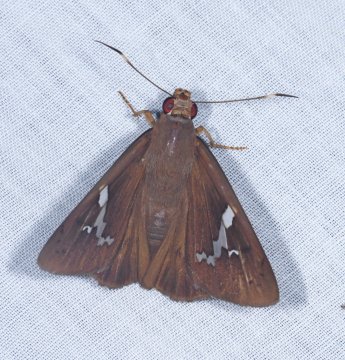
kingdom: Animalia
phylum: Arthropoda
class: Insecta
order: Lepidoptera
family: Hesperiidae
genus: Bungalotis
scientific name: Bungalotis midas
